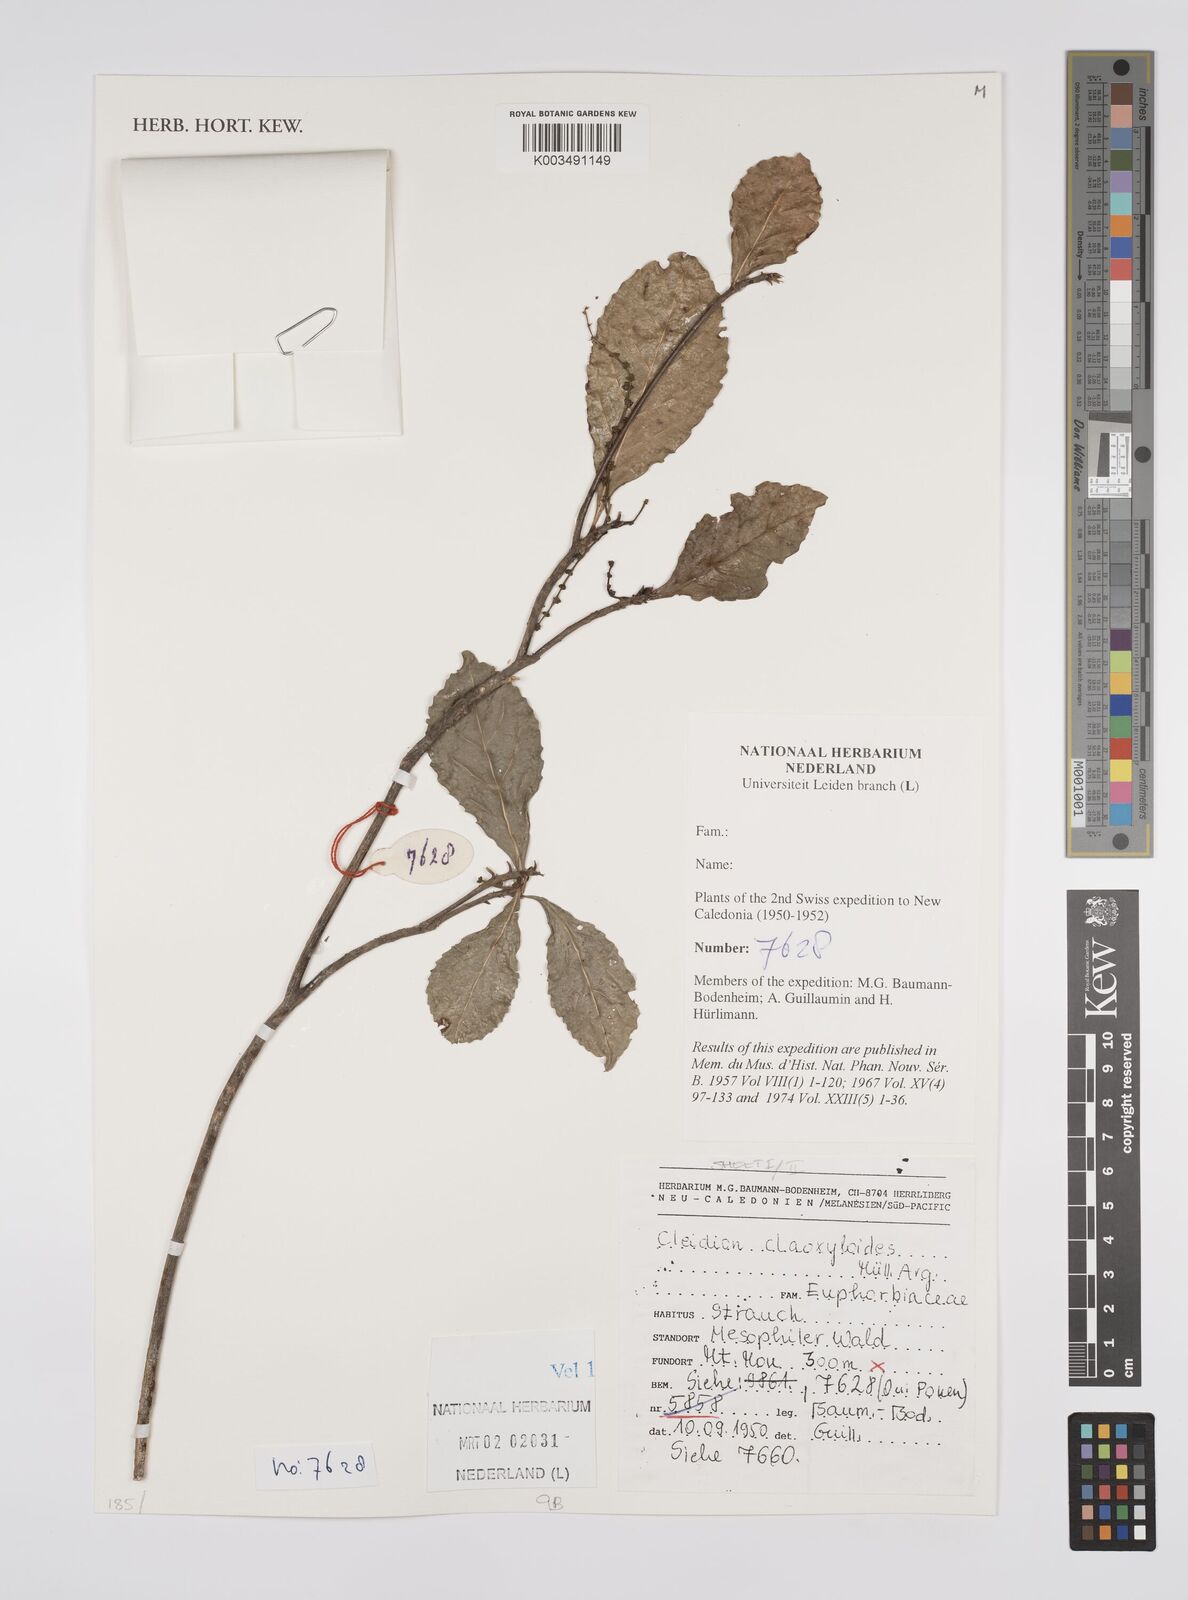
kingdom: Plantae
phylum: Tracheophyta
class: Magnoliopsida
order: Malpighiales
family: Euphorbiaceae
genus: Cleidion
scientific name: Cleidion claoxyloides
